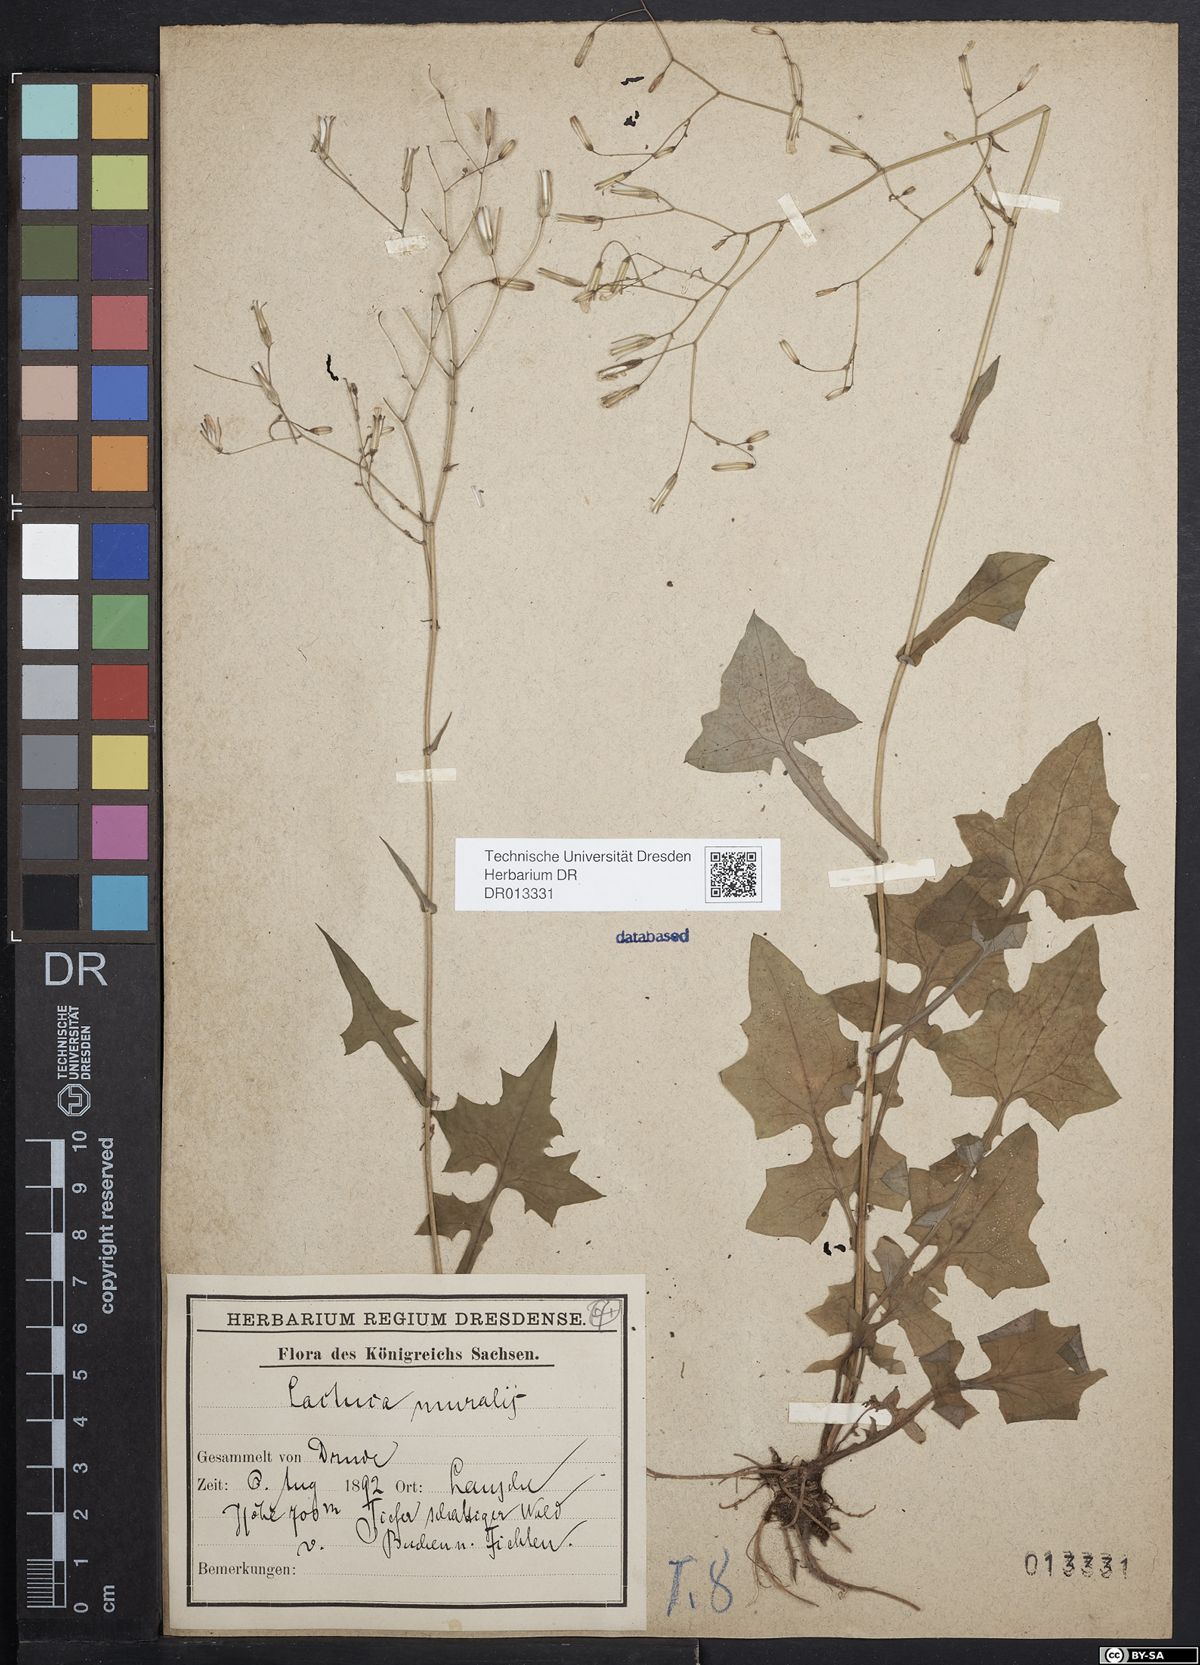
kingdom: Plantae
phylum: Tracheophyta
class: Magnoliopsida
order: Asterales
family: Asteraceae
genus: Mycelis
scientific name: Mycelis muralis
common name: Wall lettuce
